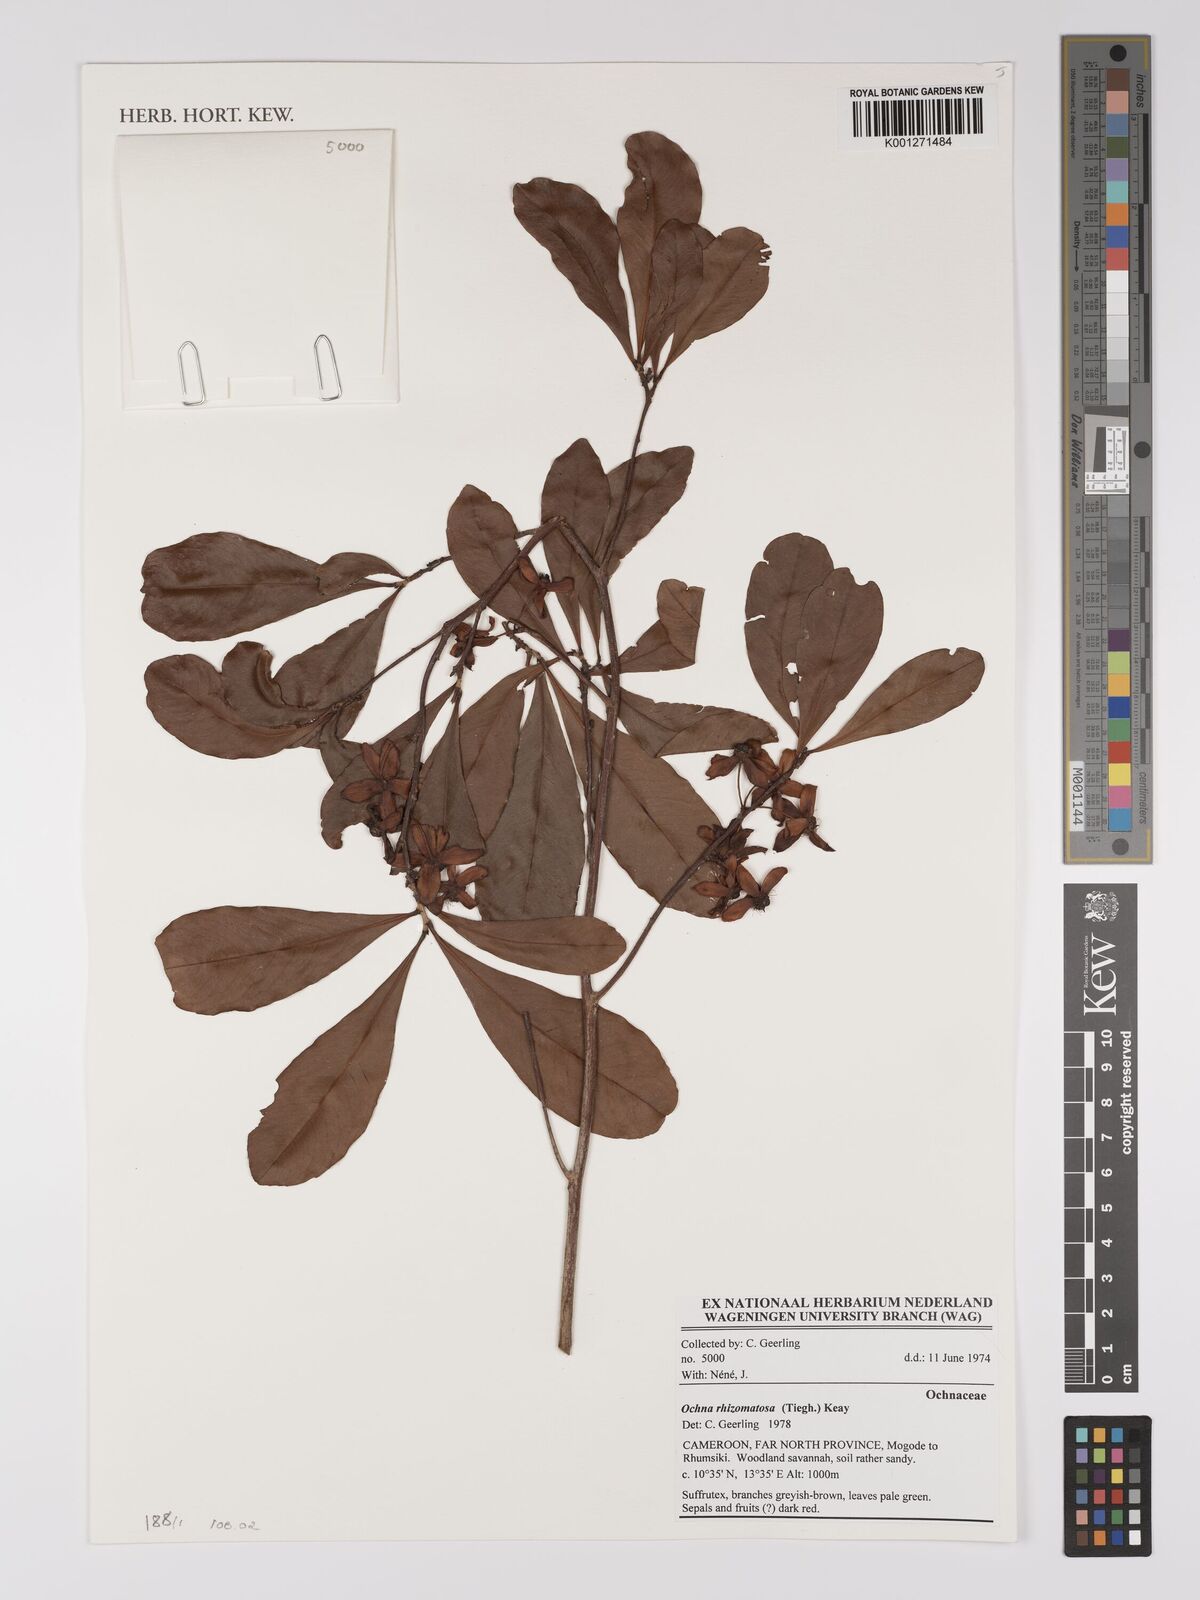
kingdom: Plantae
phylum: Tracheophyta
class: Magnoliopsida
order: Malpighiales
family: Ochnaceae
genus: Ochna
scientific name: Ochna rhizomatosa
